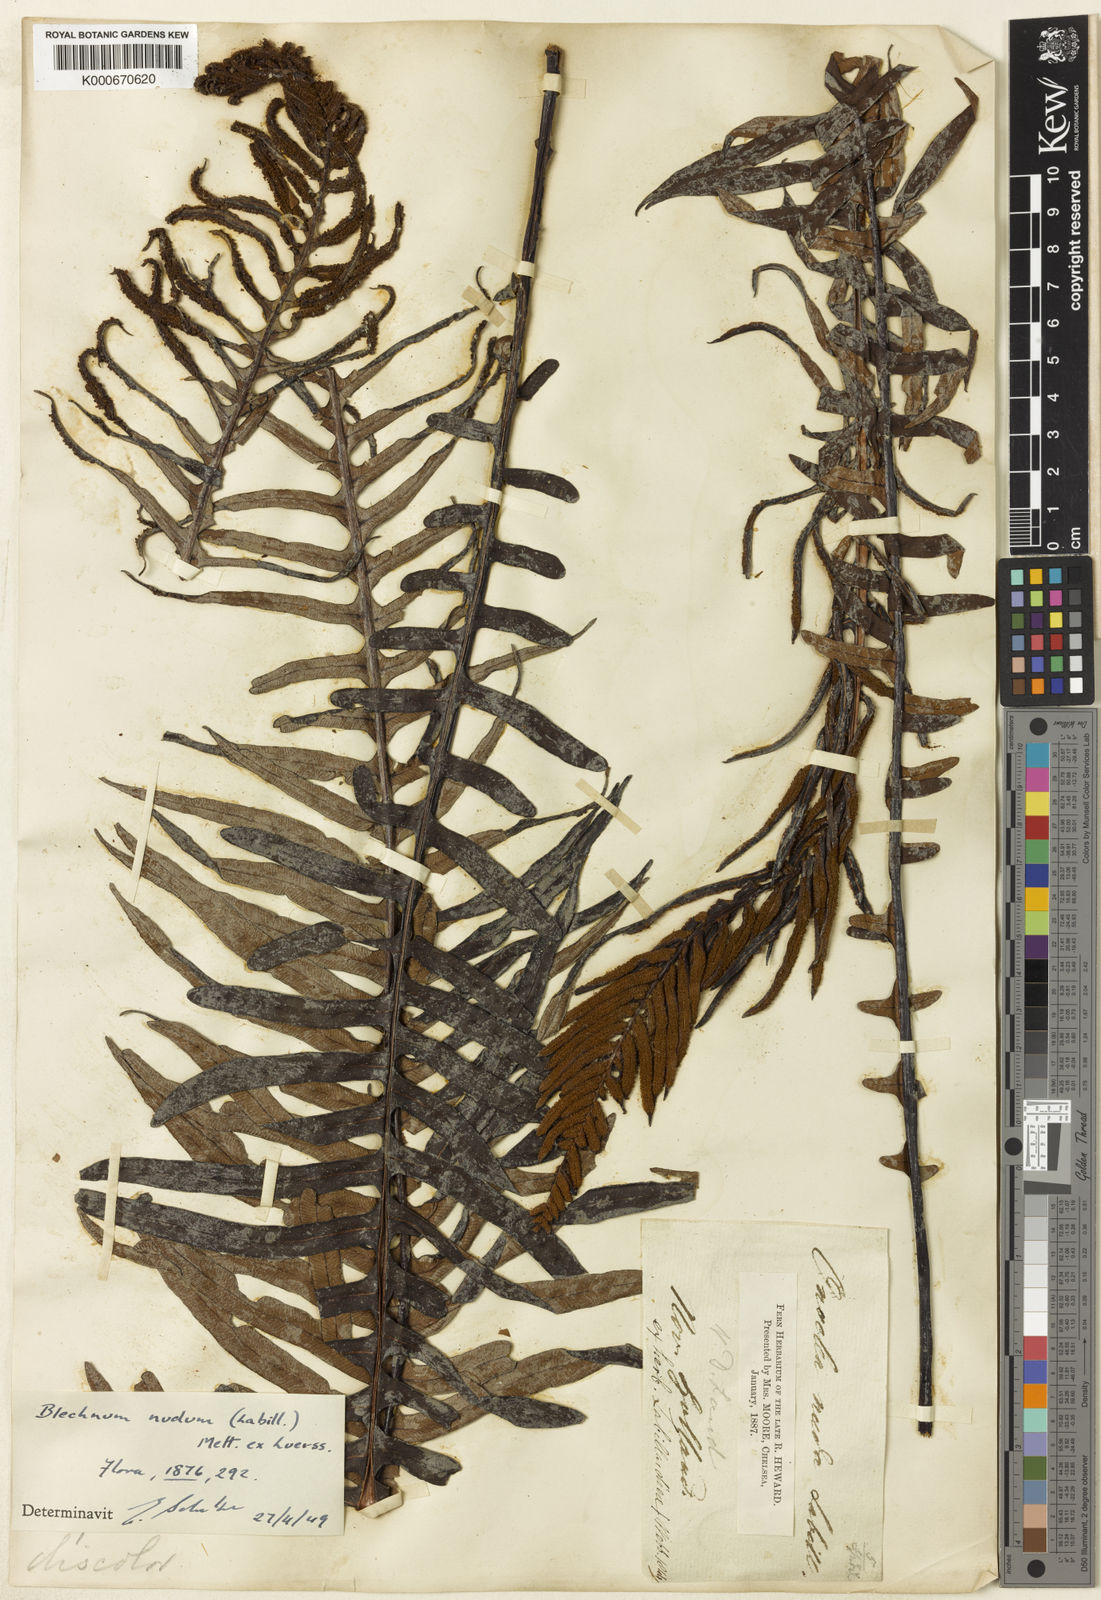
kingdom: Plantae
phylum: Tracheophyta
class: Polypodiopsida
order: Polypodiales
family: Blechnaceae
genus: Blechnum
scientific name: Blechnum
